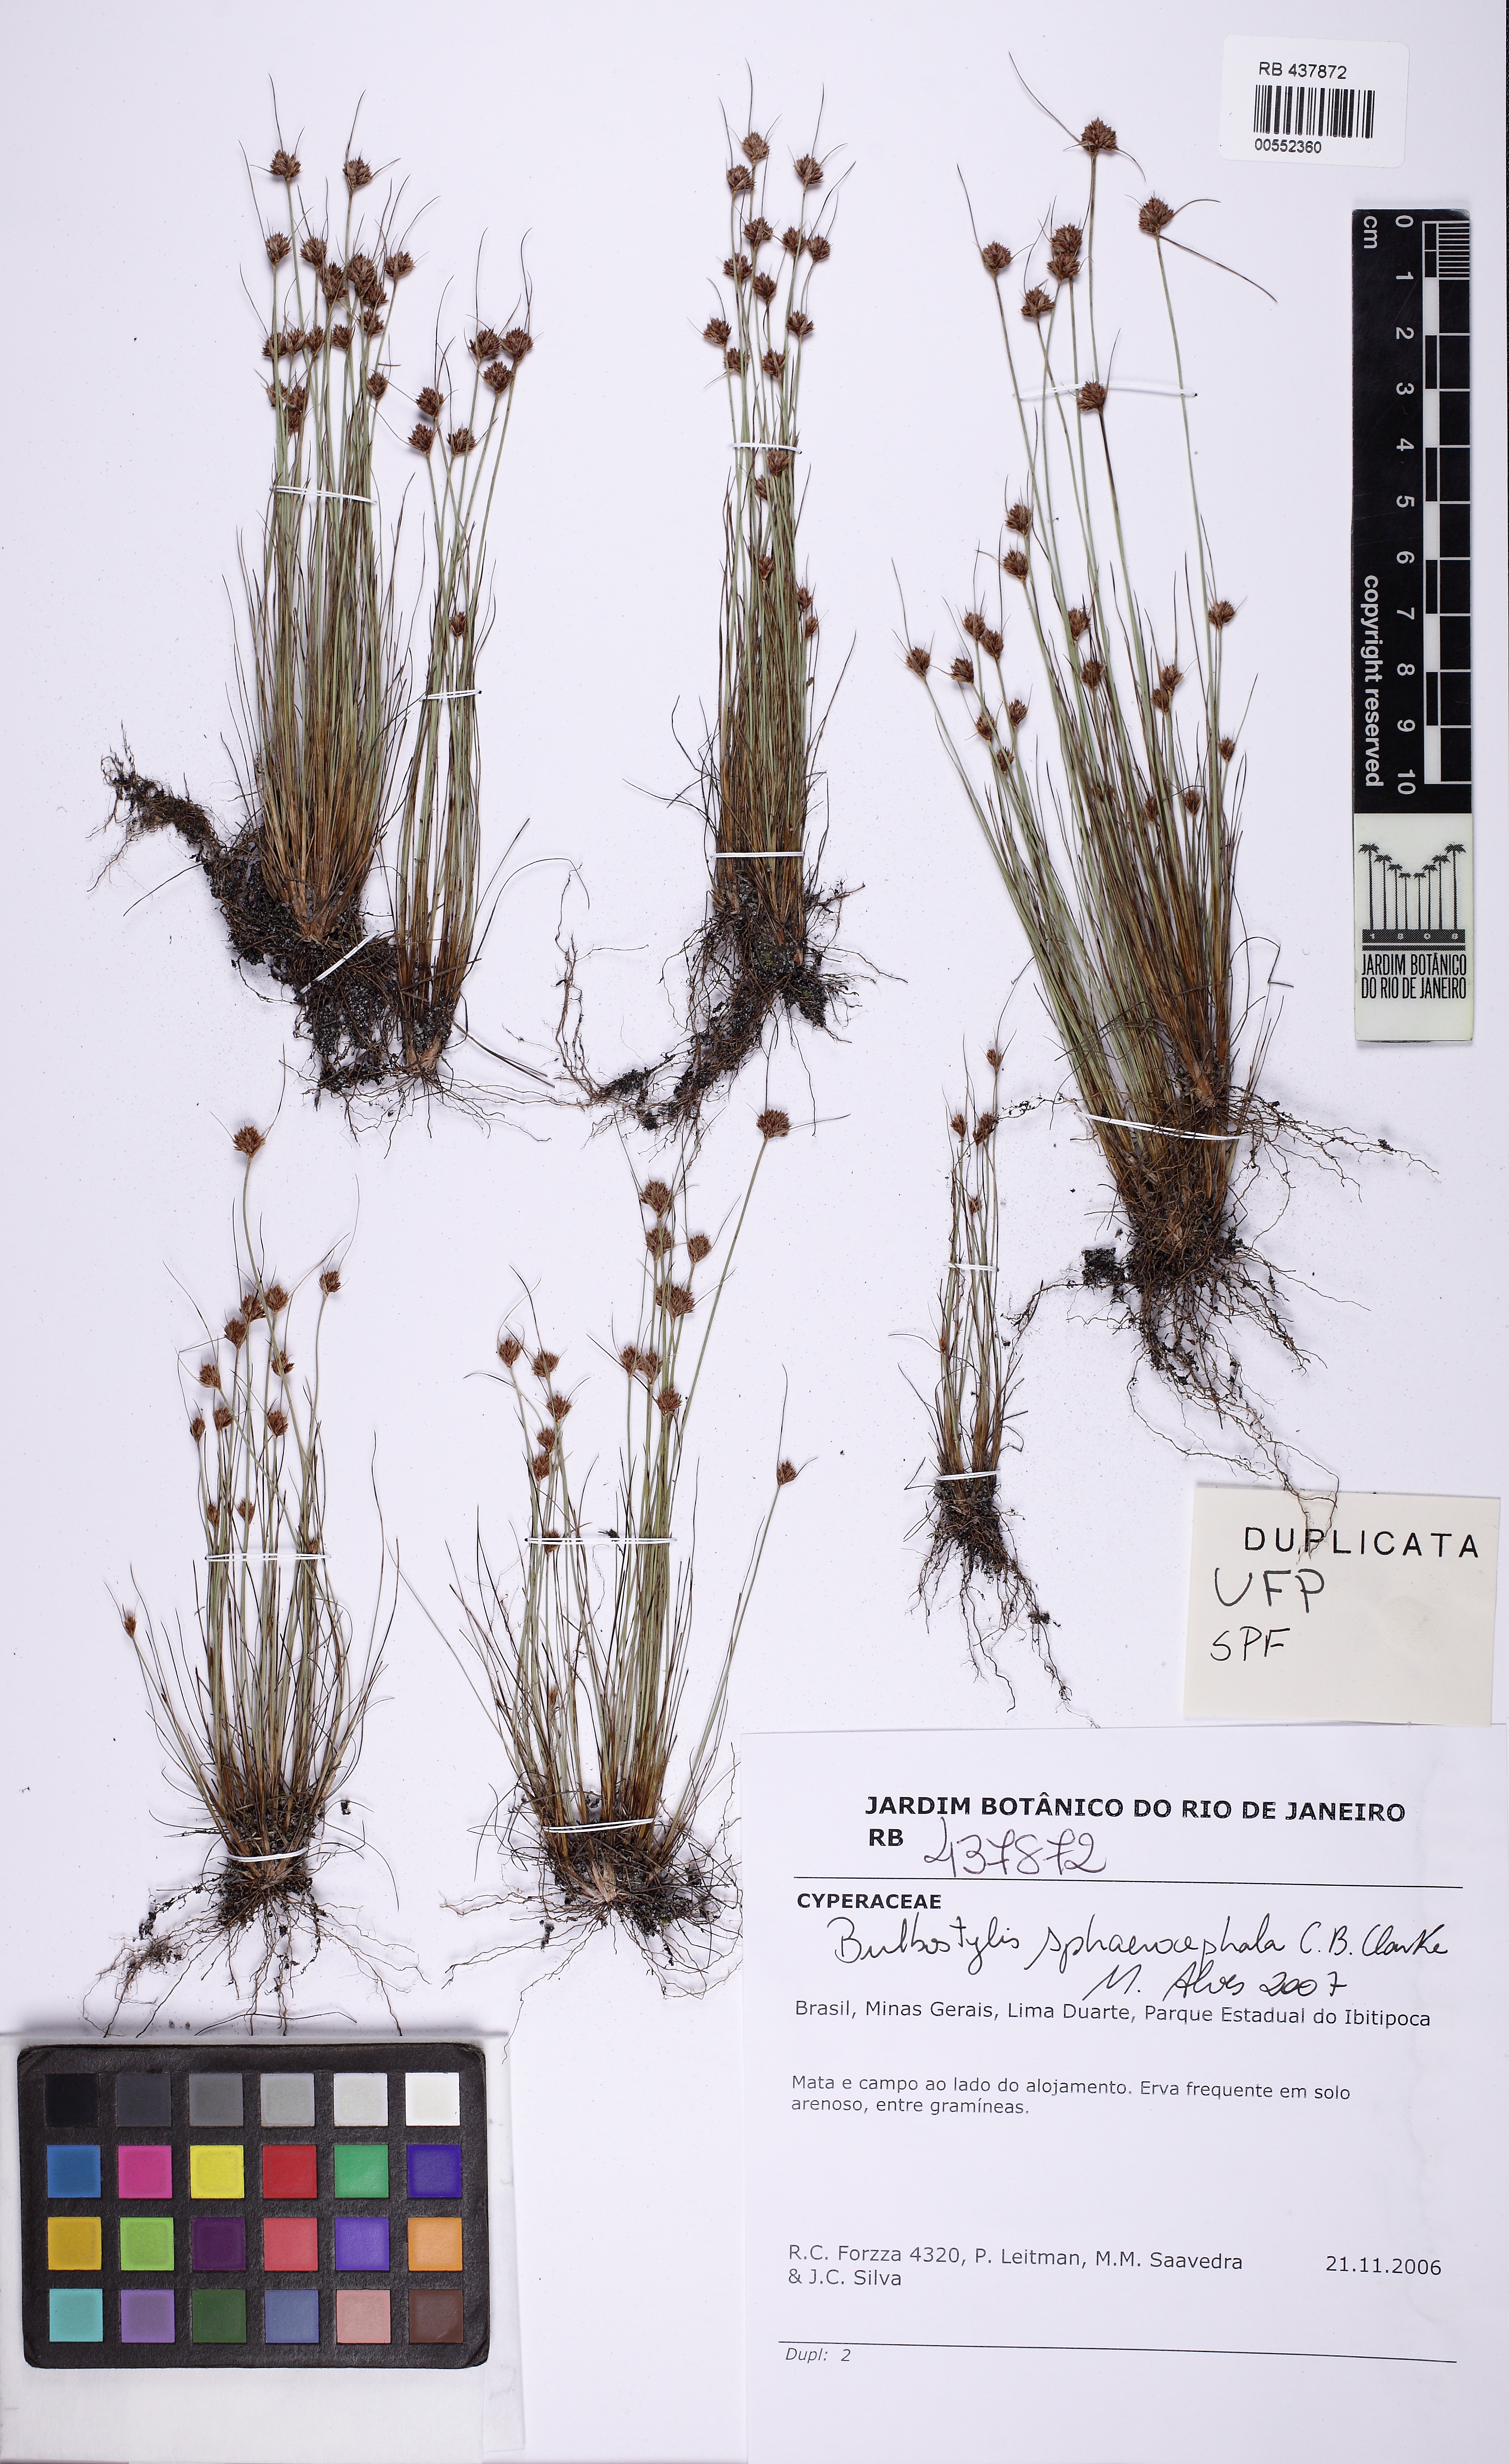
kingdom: Plantae
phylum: Tracheophyta
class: Liliopsida
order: Poales
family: Cyperaceae
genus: Bulbostylis
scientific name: Bulbostylis sphaerocephala
